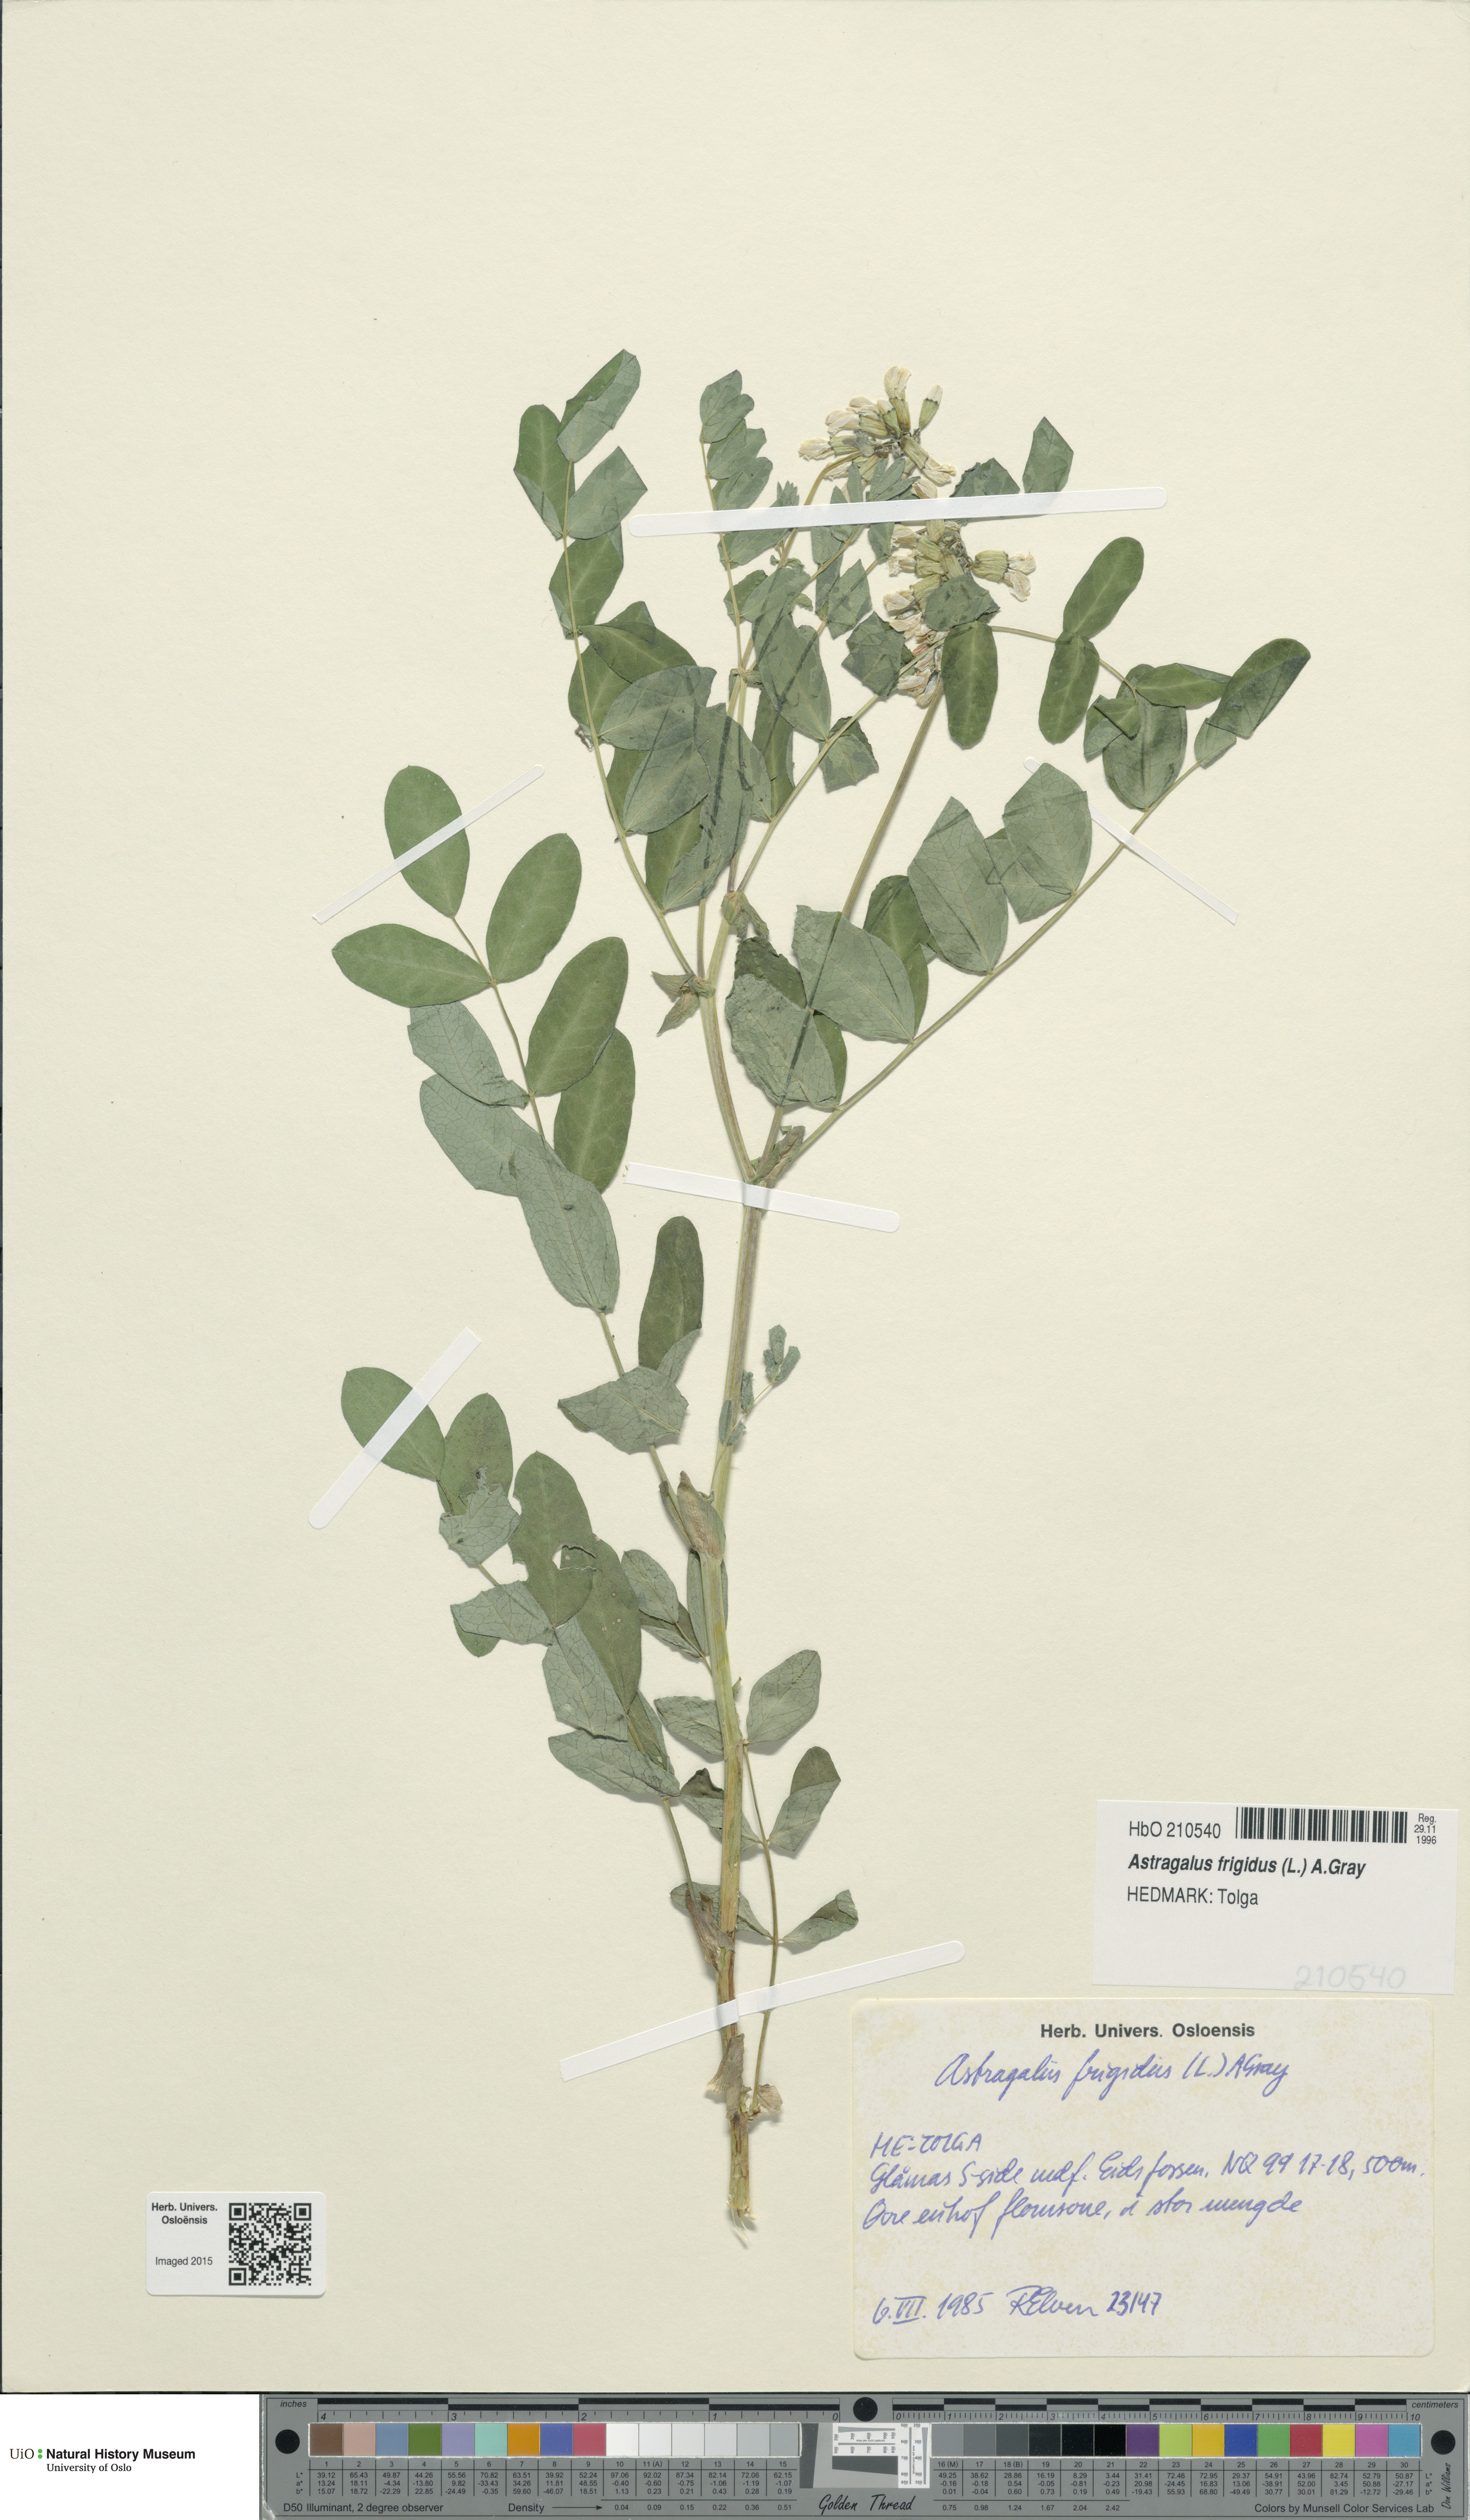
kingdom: Plantae
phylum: Tracheophyta
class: Magnoliopsida
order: Fabales
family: Fabaceae
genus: Astragalus
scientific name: Astragalus frigidus
